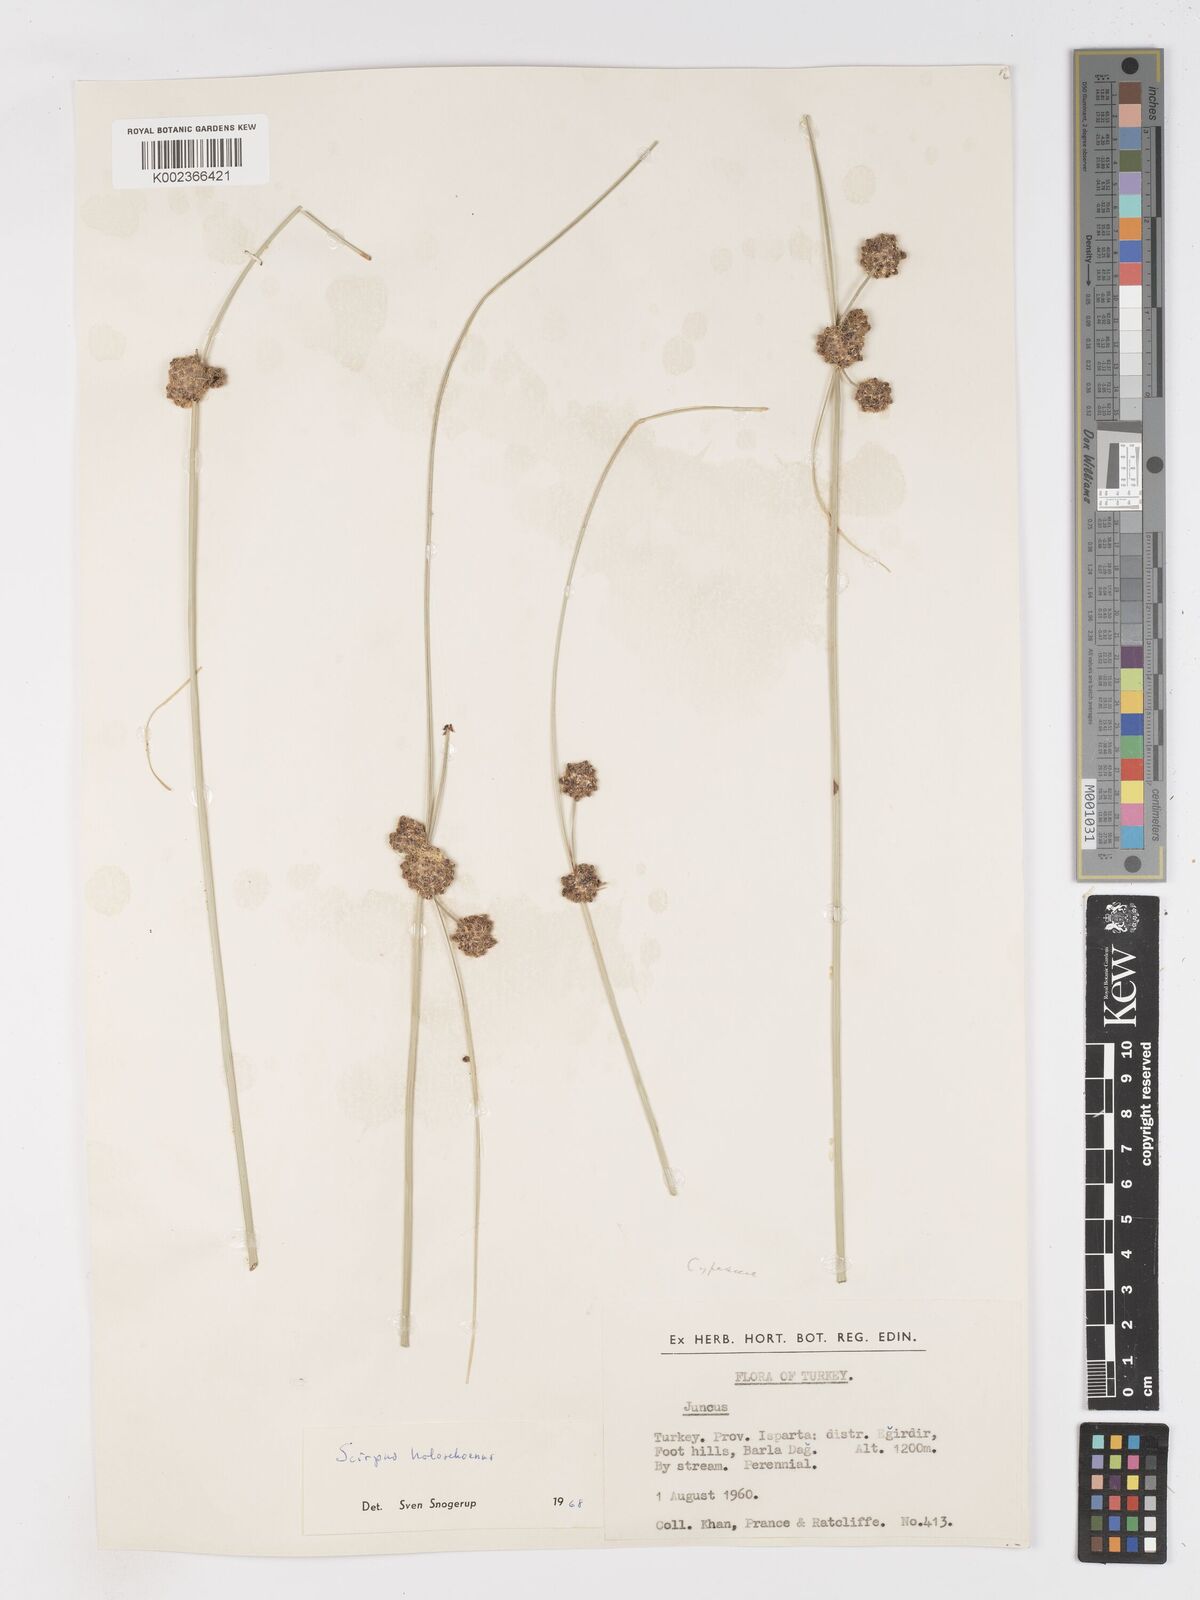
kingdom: Plantae
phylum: Tracheophyta
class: Liliopsida
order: Poales
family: Cyperaceae
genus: Scirpoides
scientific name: Scirpoides holoschoenus
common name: Round-headed club-rush
